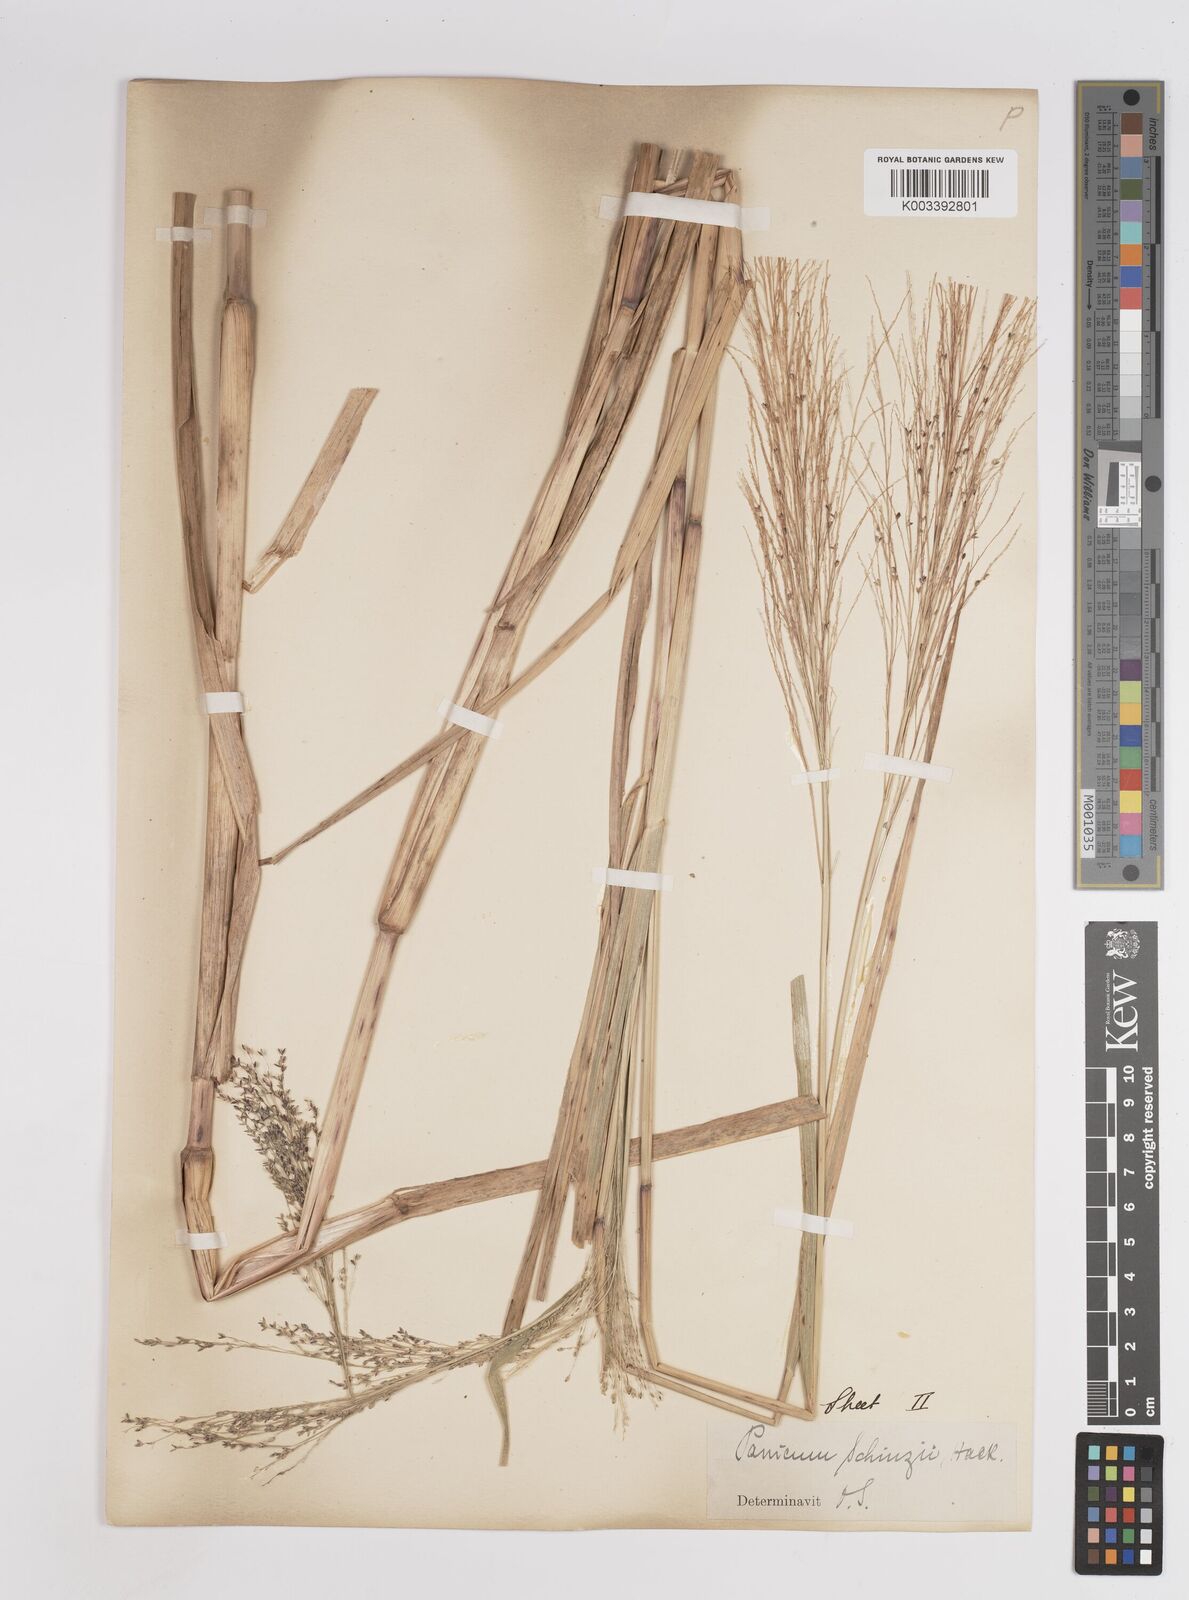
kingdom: Plantae
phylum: Tracheophyta
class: Liliopsida
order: Poales
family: Poaceae
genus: Panicum
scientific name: Panicum schinzii
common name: Sweet grass
